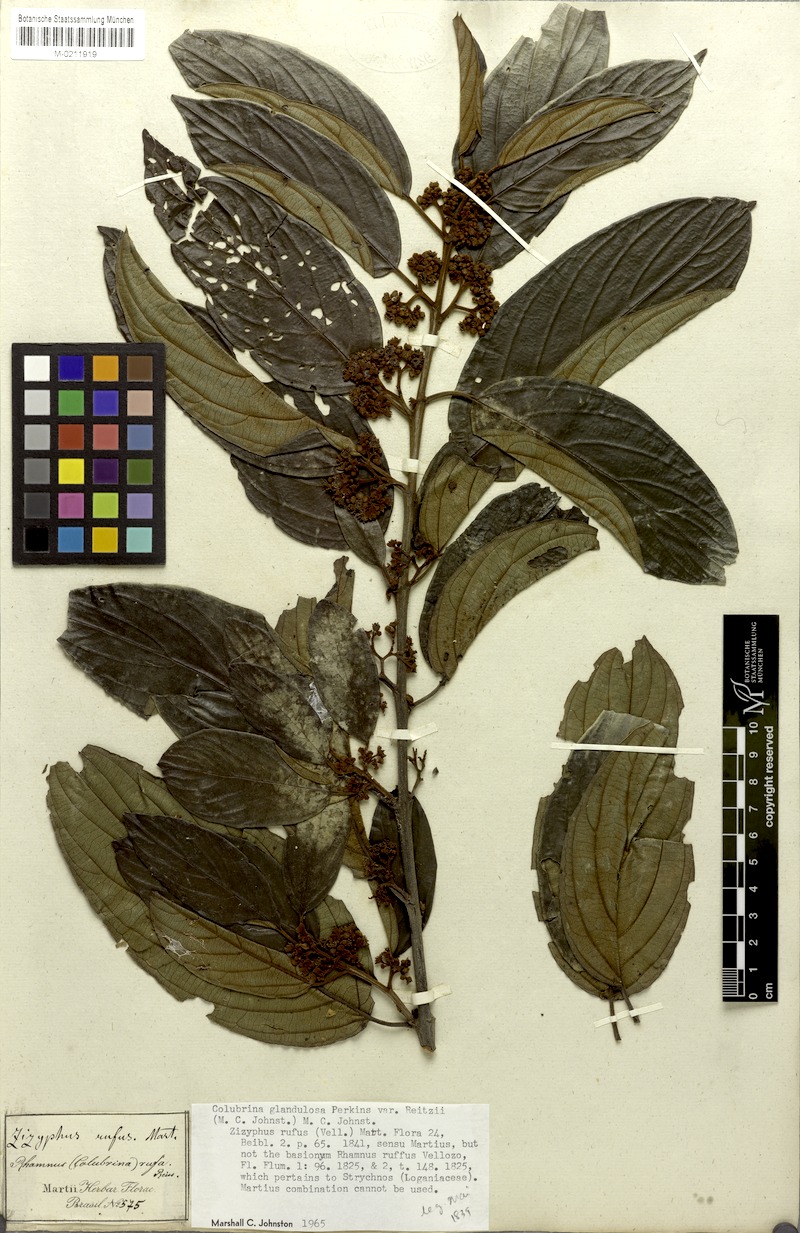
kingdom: Plantae
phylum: Tracheophyta
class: Magnoliopsida
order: Rosales
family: Rhamnaceae
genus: Colubrina
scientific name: Colubrina glandulosa
